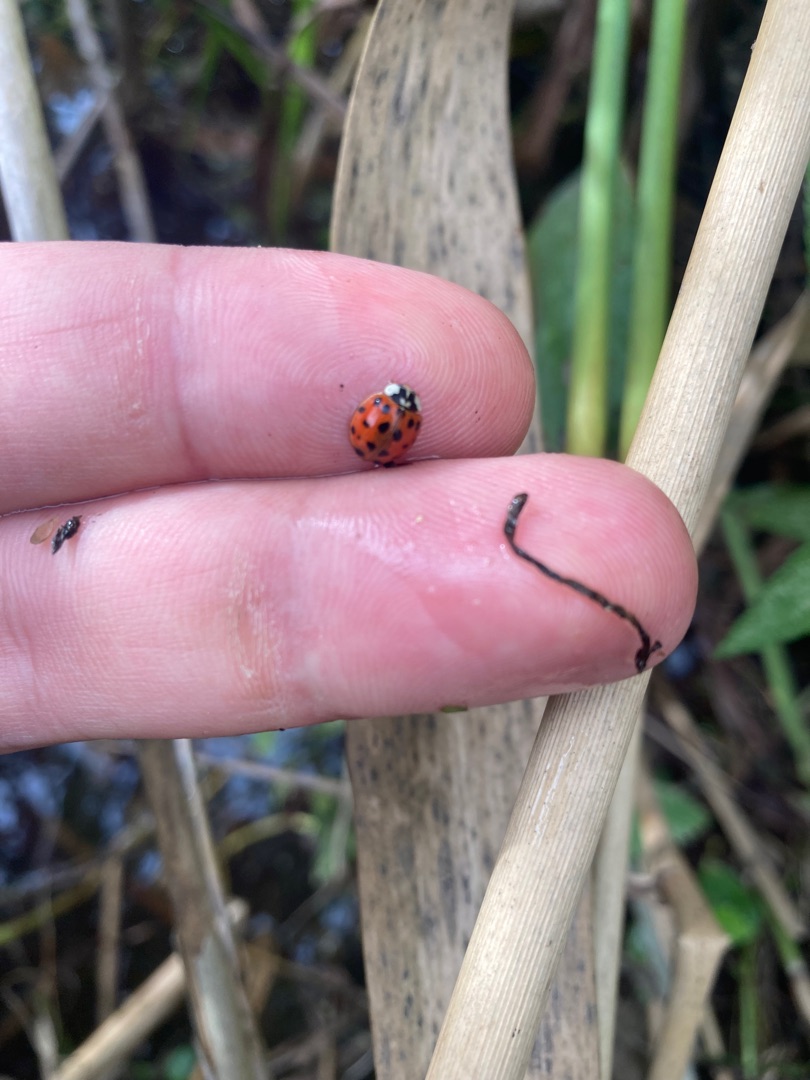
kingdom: Animalia
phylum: Arthropoda
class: Insecta
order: Coleoptera
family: Coccinellidae
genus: Harmonia
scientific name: Harmonia axyridis
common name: Harlekinmariehøne
